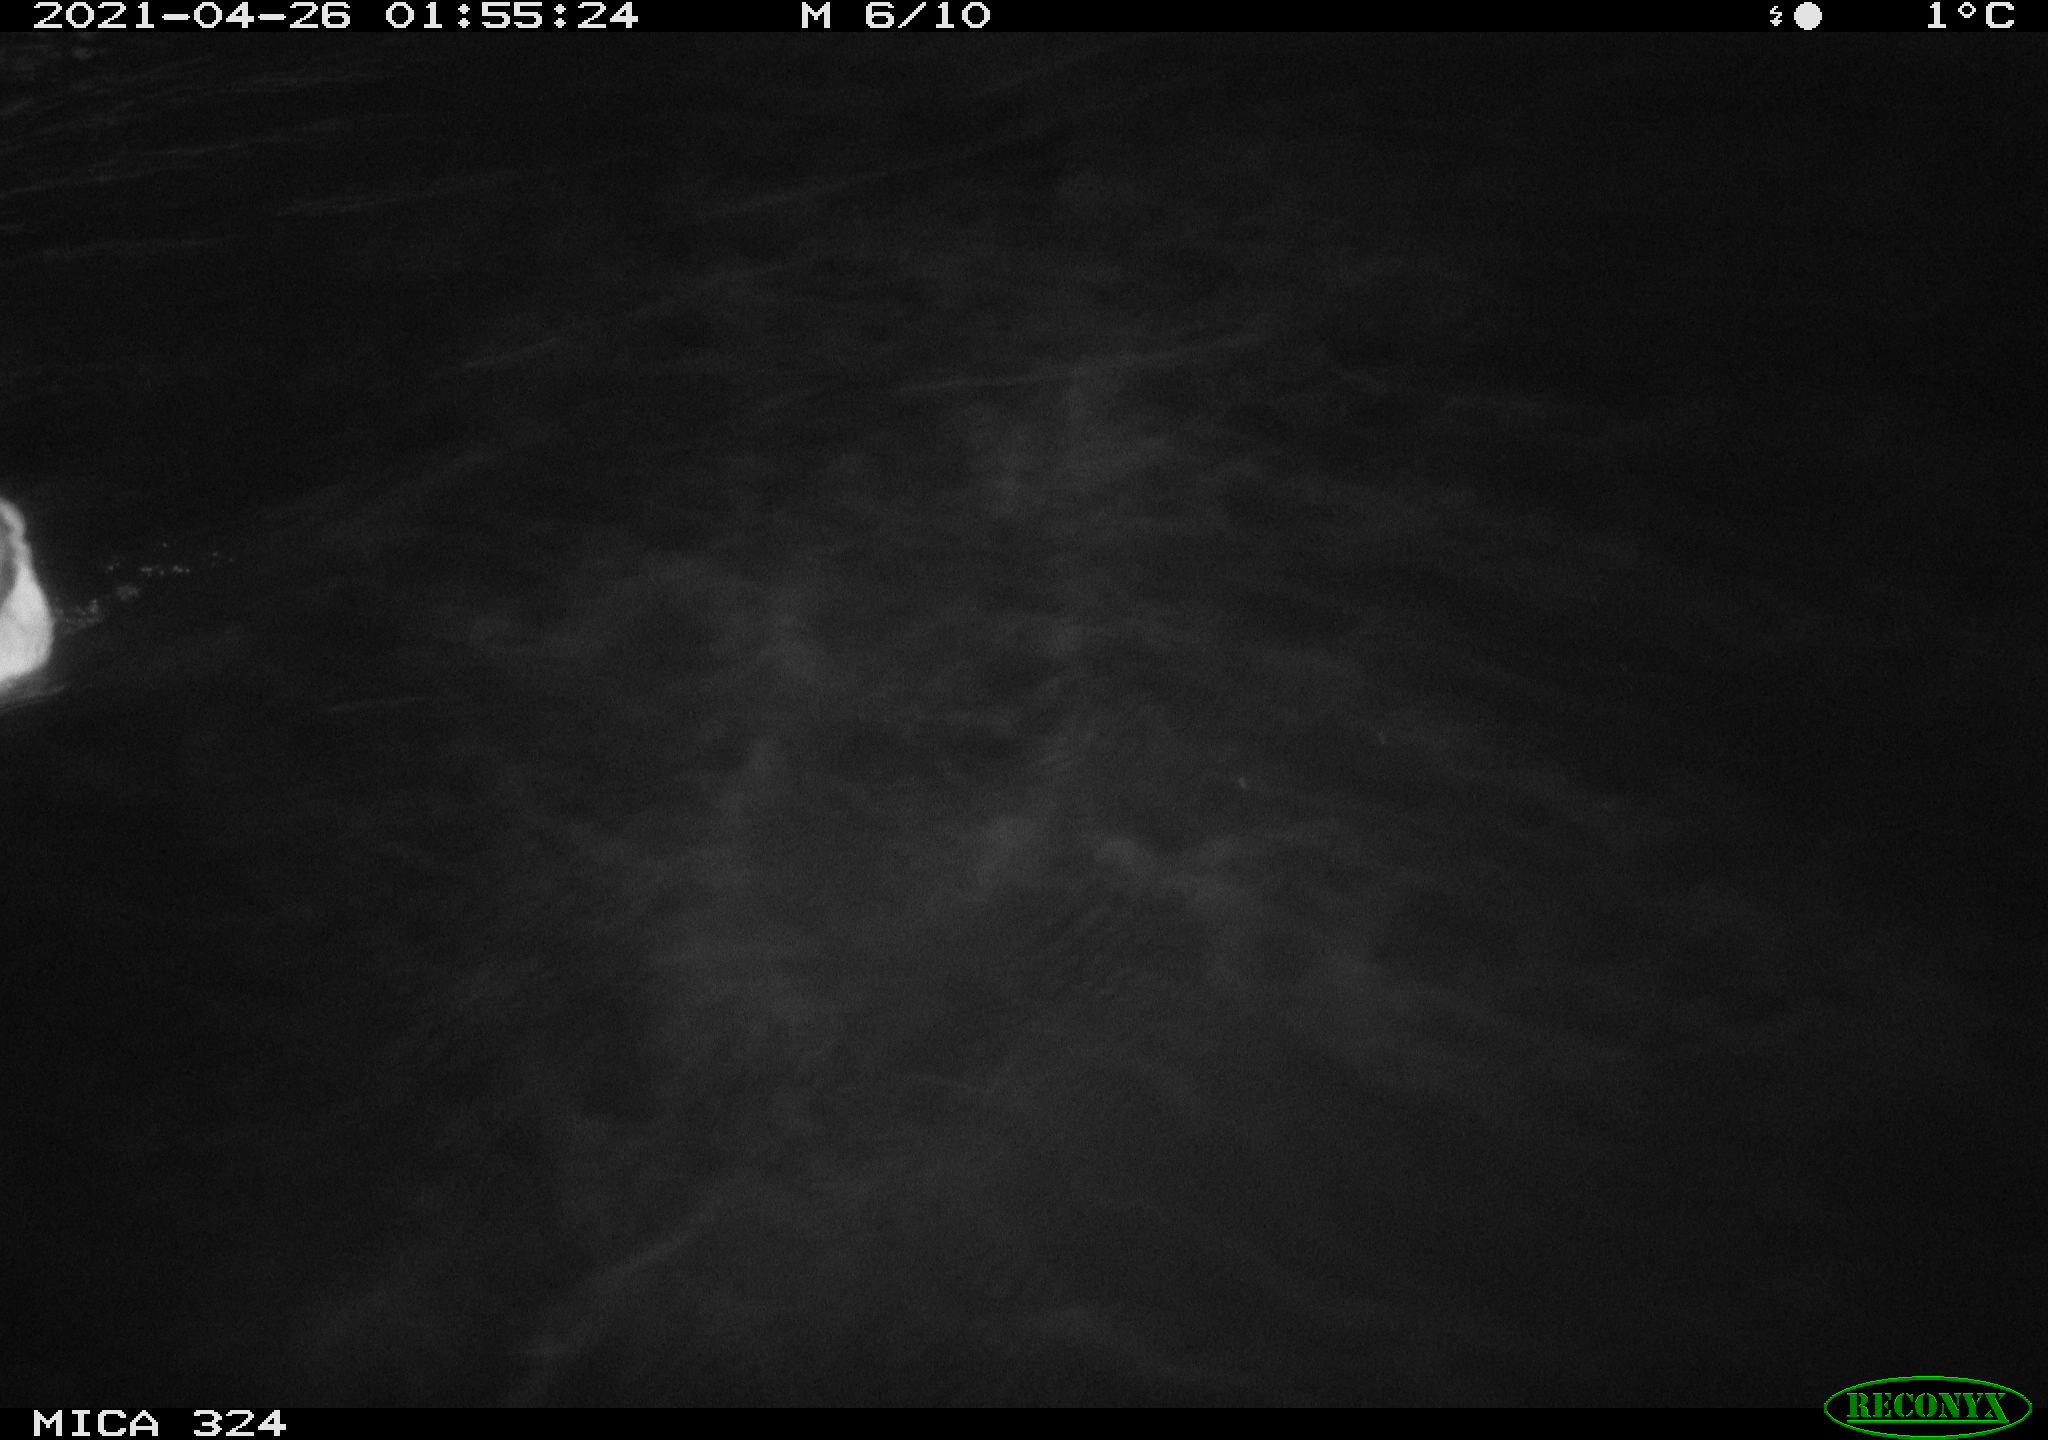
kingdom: Animalia
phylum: Chordata
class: Aves
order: Anseriformes
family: Anatidae
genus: Anas
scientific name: Anas platyrhynchos
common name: Mallard
